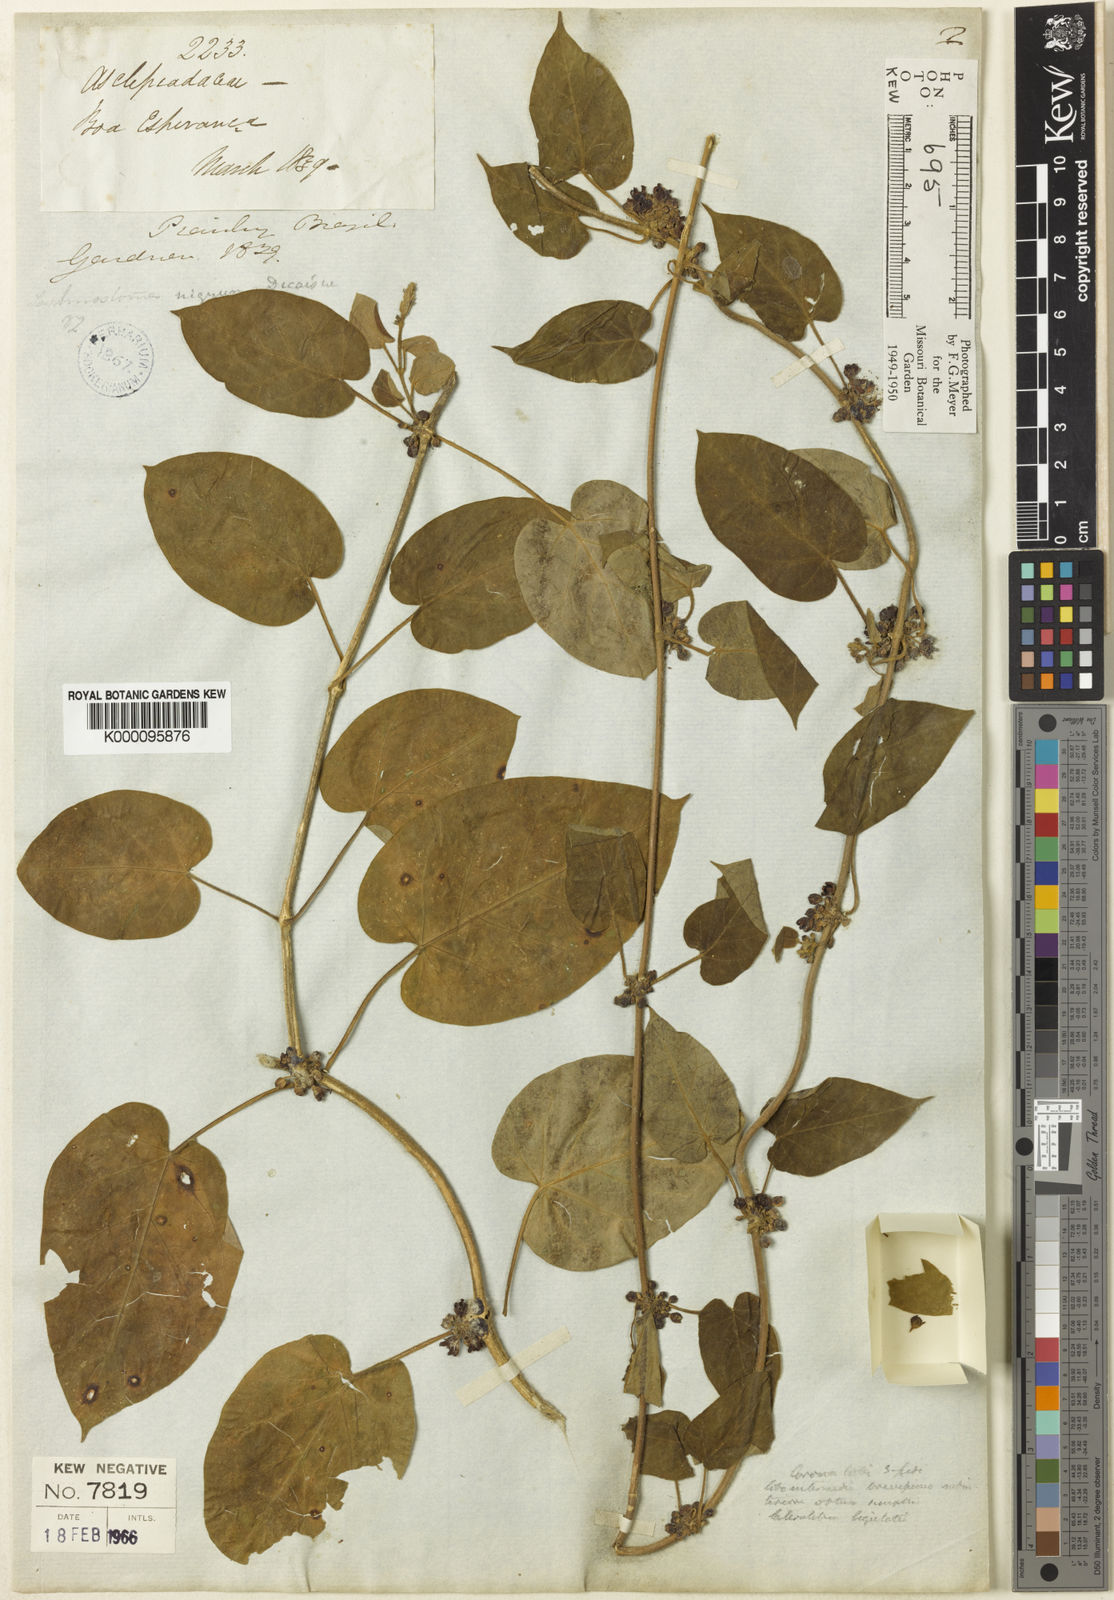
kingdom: Plantae
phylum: Tracheophyta
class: Magnoliopsida
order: Gentianales
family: Apocynaceae
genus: Ibatia
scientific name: Ibatia nigra
